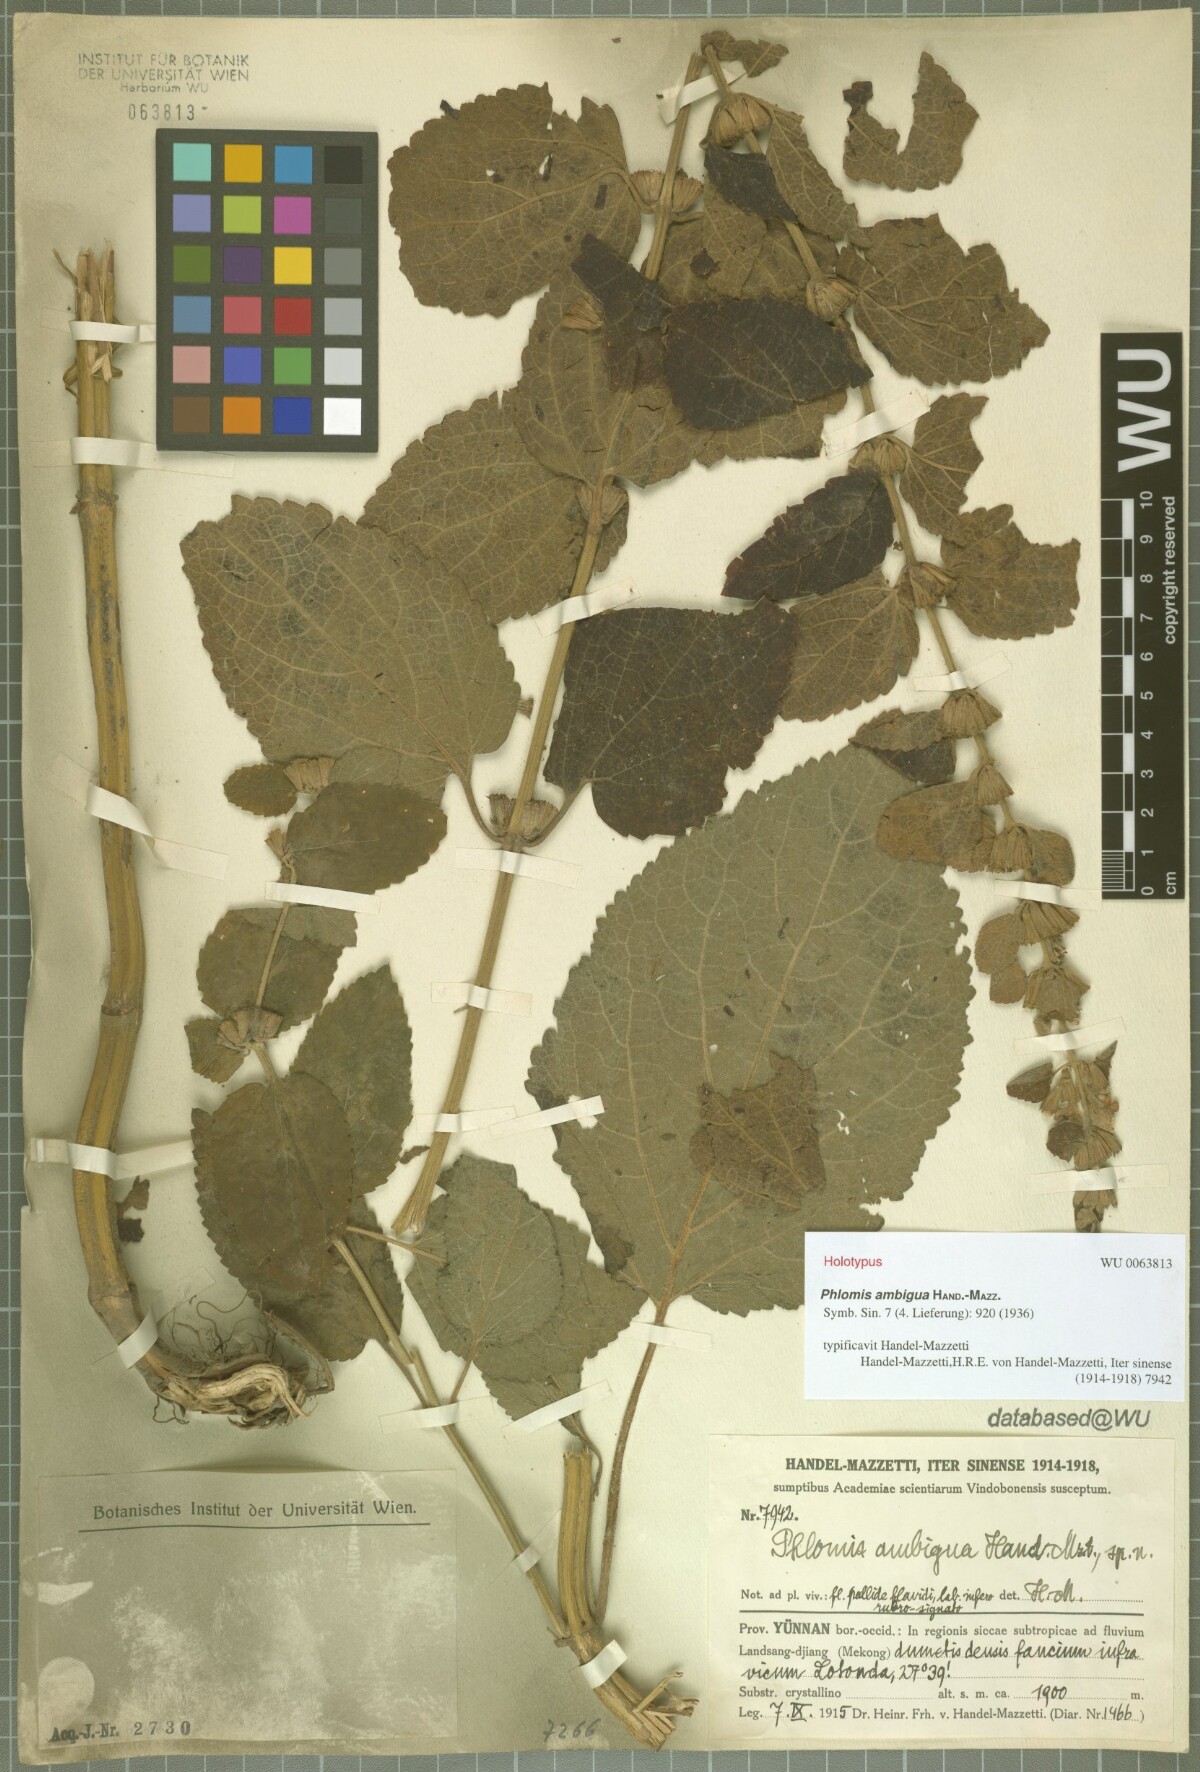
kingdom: Plantae
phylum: Tracheophyta
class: Magnoliopsida
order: Lamiales
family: Lamiaceae
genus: Phlomoides
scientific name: Phlomoides mazzettii
